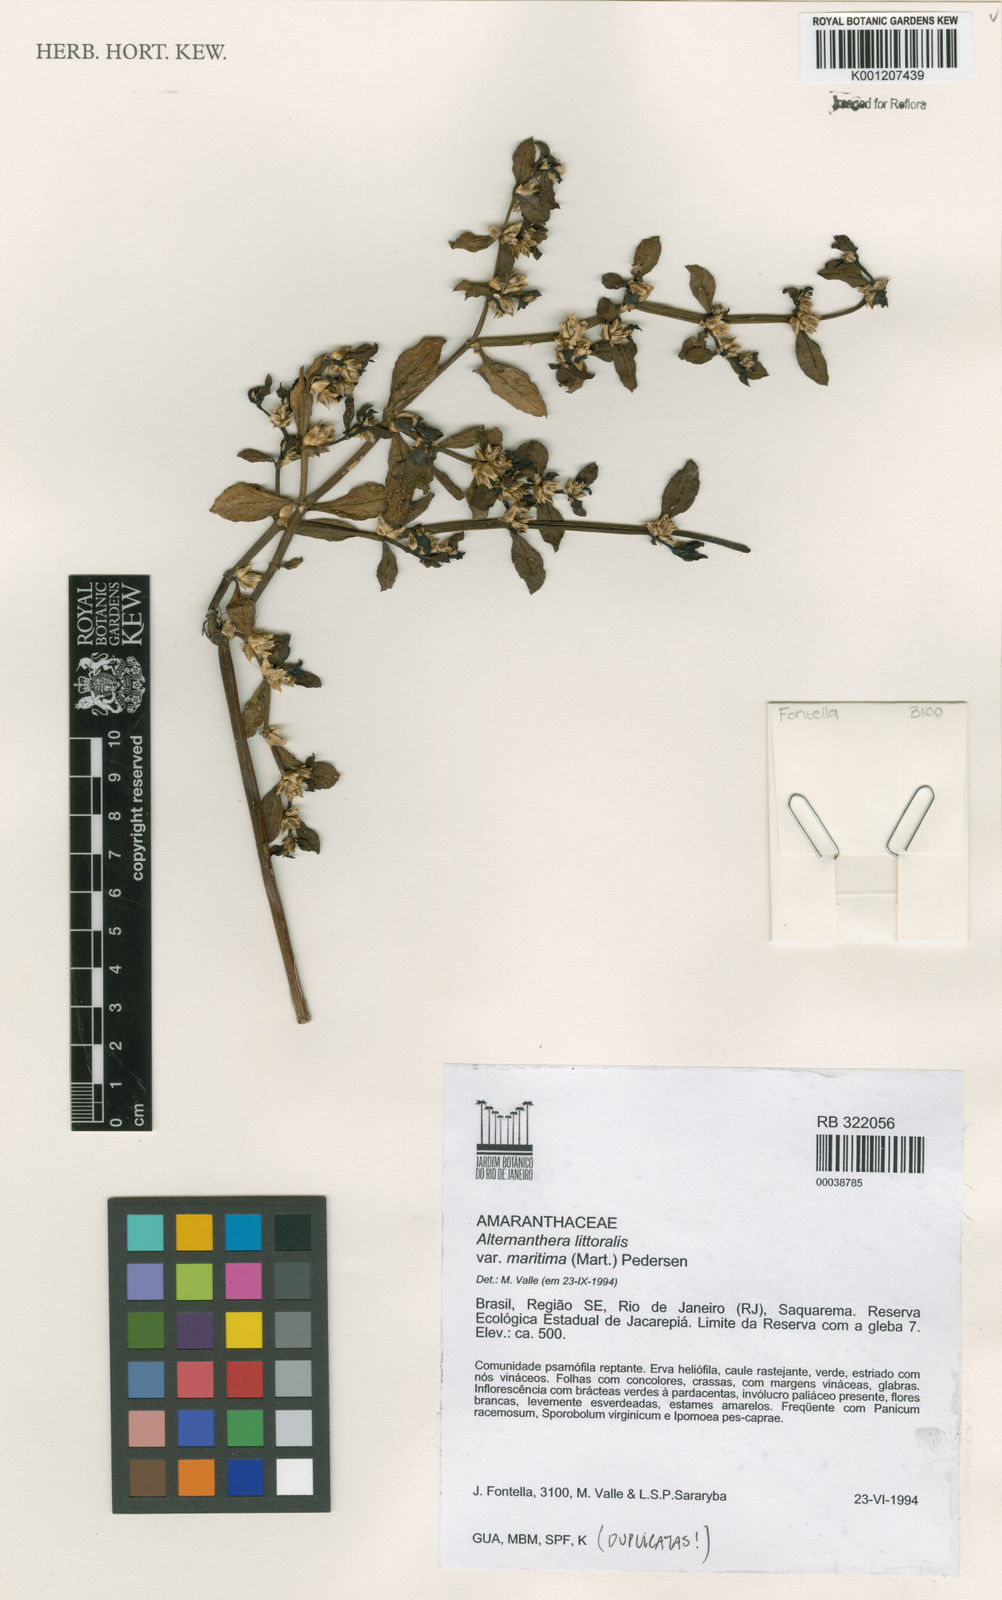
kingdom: Plantae
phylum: Tracheophyta
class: Magnoliopsida
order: Caryophyllales
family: Amaranthaceae
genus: Alternanthera
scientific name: Alternanthera littoralis
